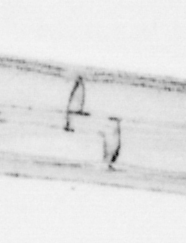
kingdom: Animalia
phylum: Chordata
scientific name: Chordata
